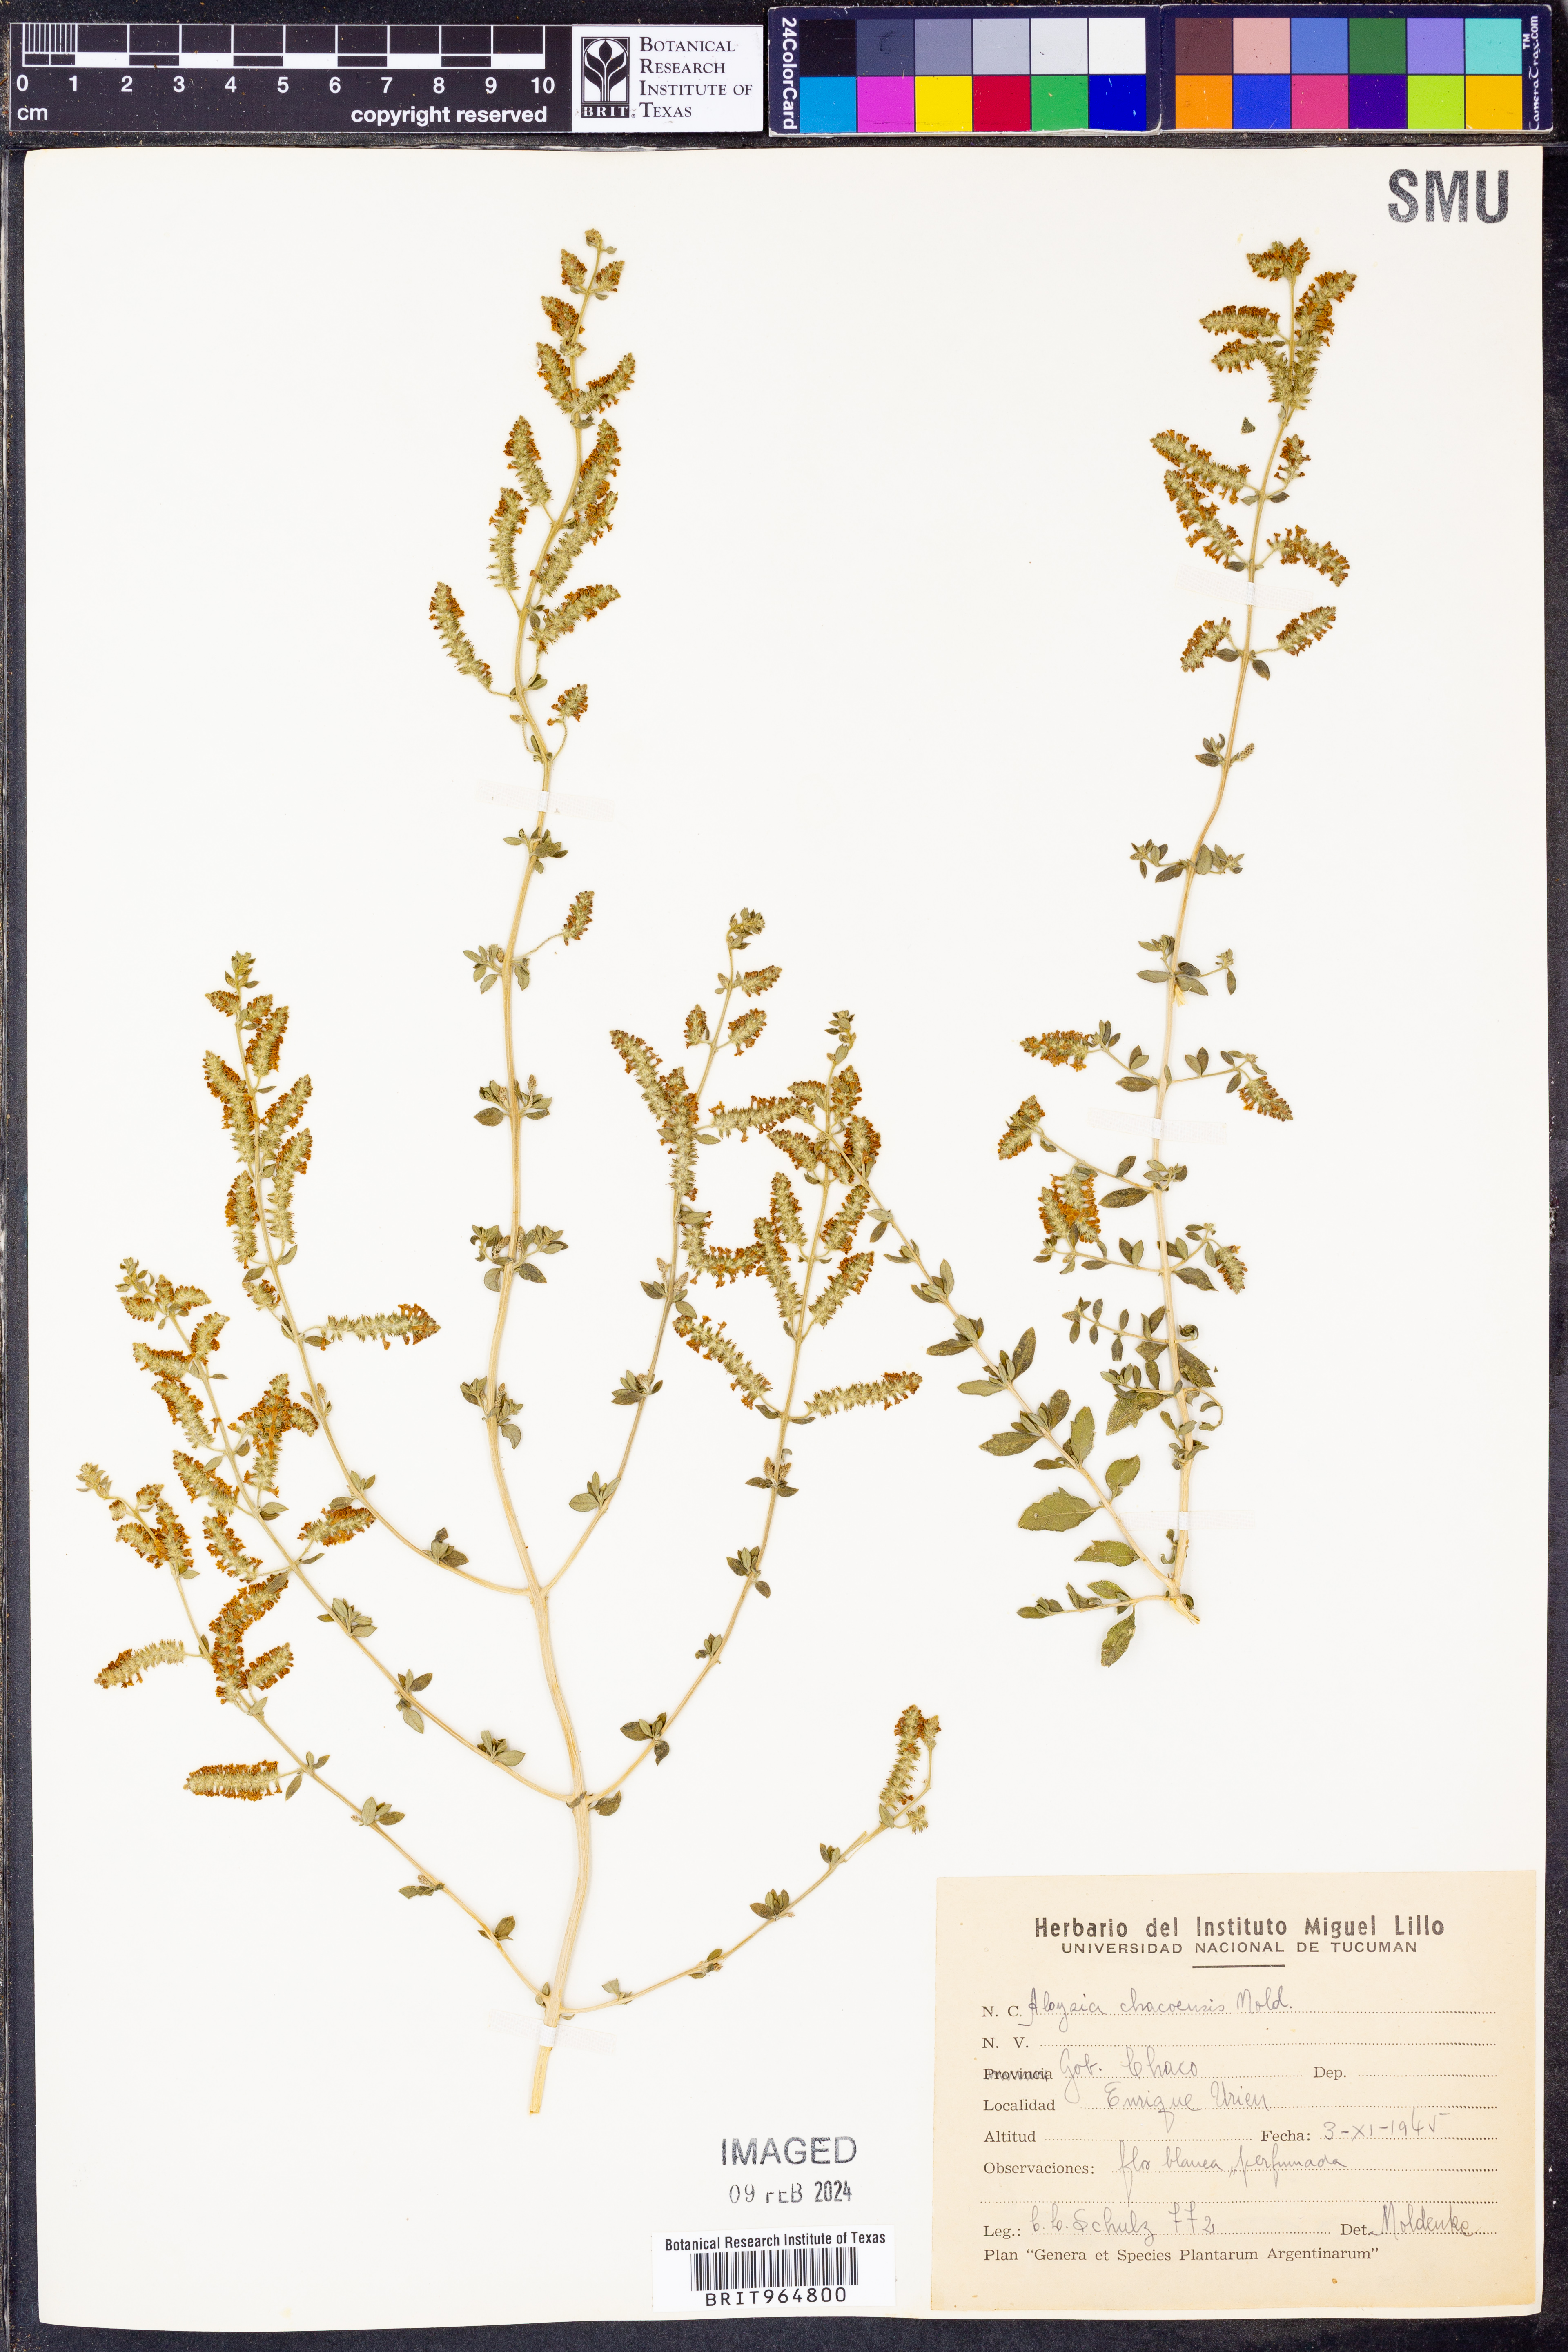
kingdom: Plantae
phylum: Tracheophyta
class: Magnoliopsida
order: Lamiales
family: Verbenaceae
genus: Aloysia
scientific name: Aloysia
